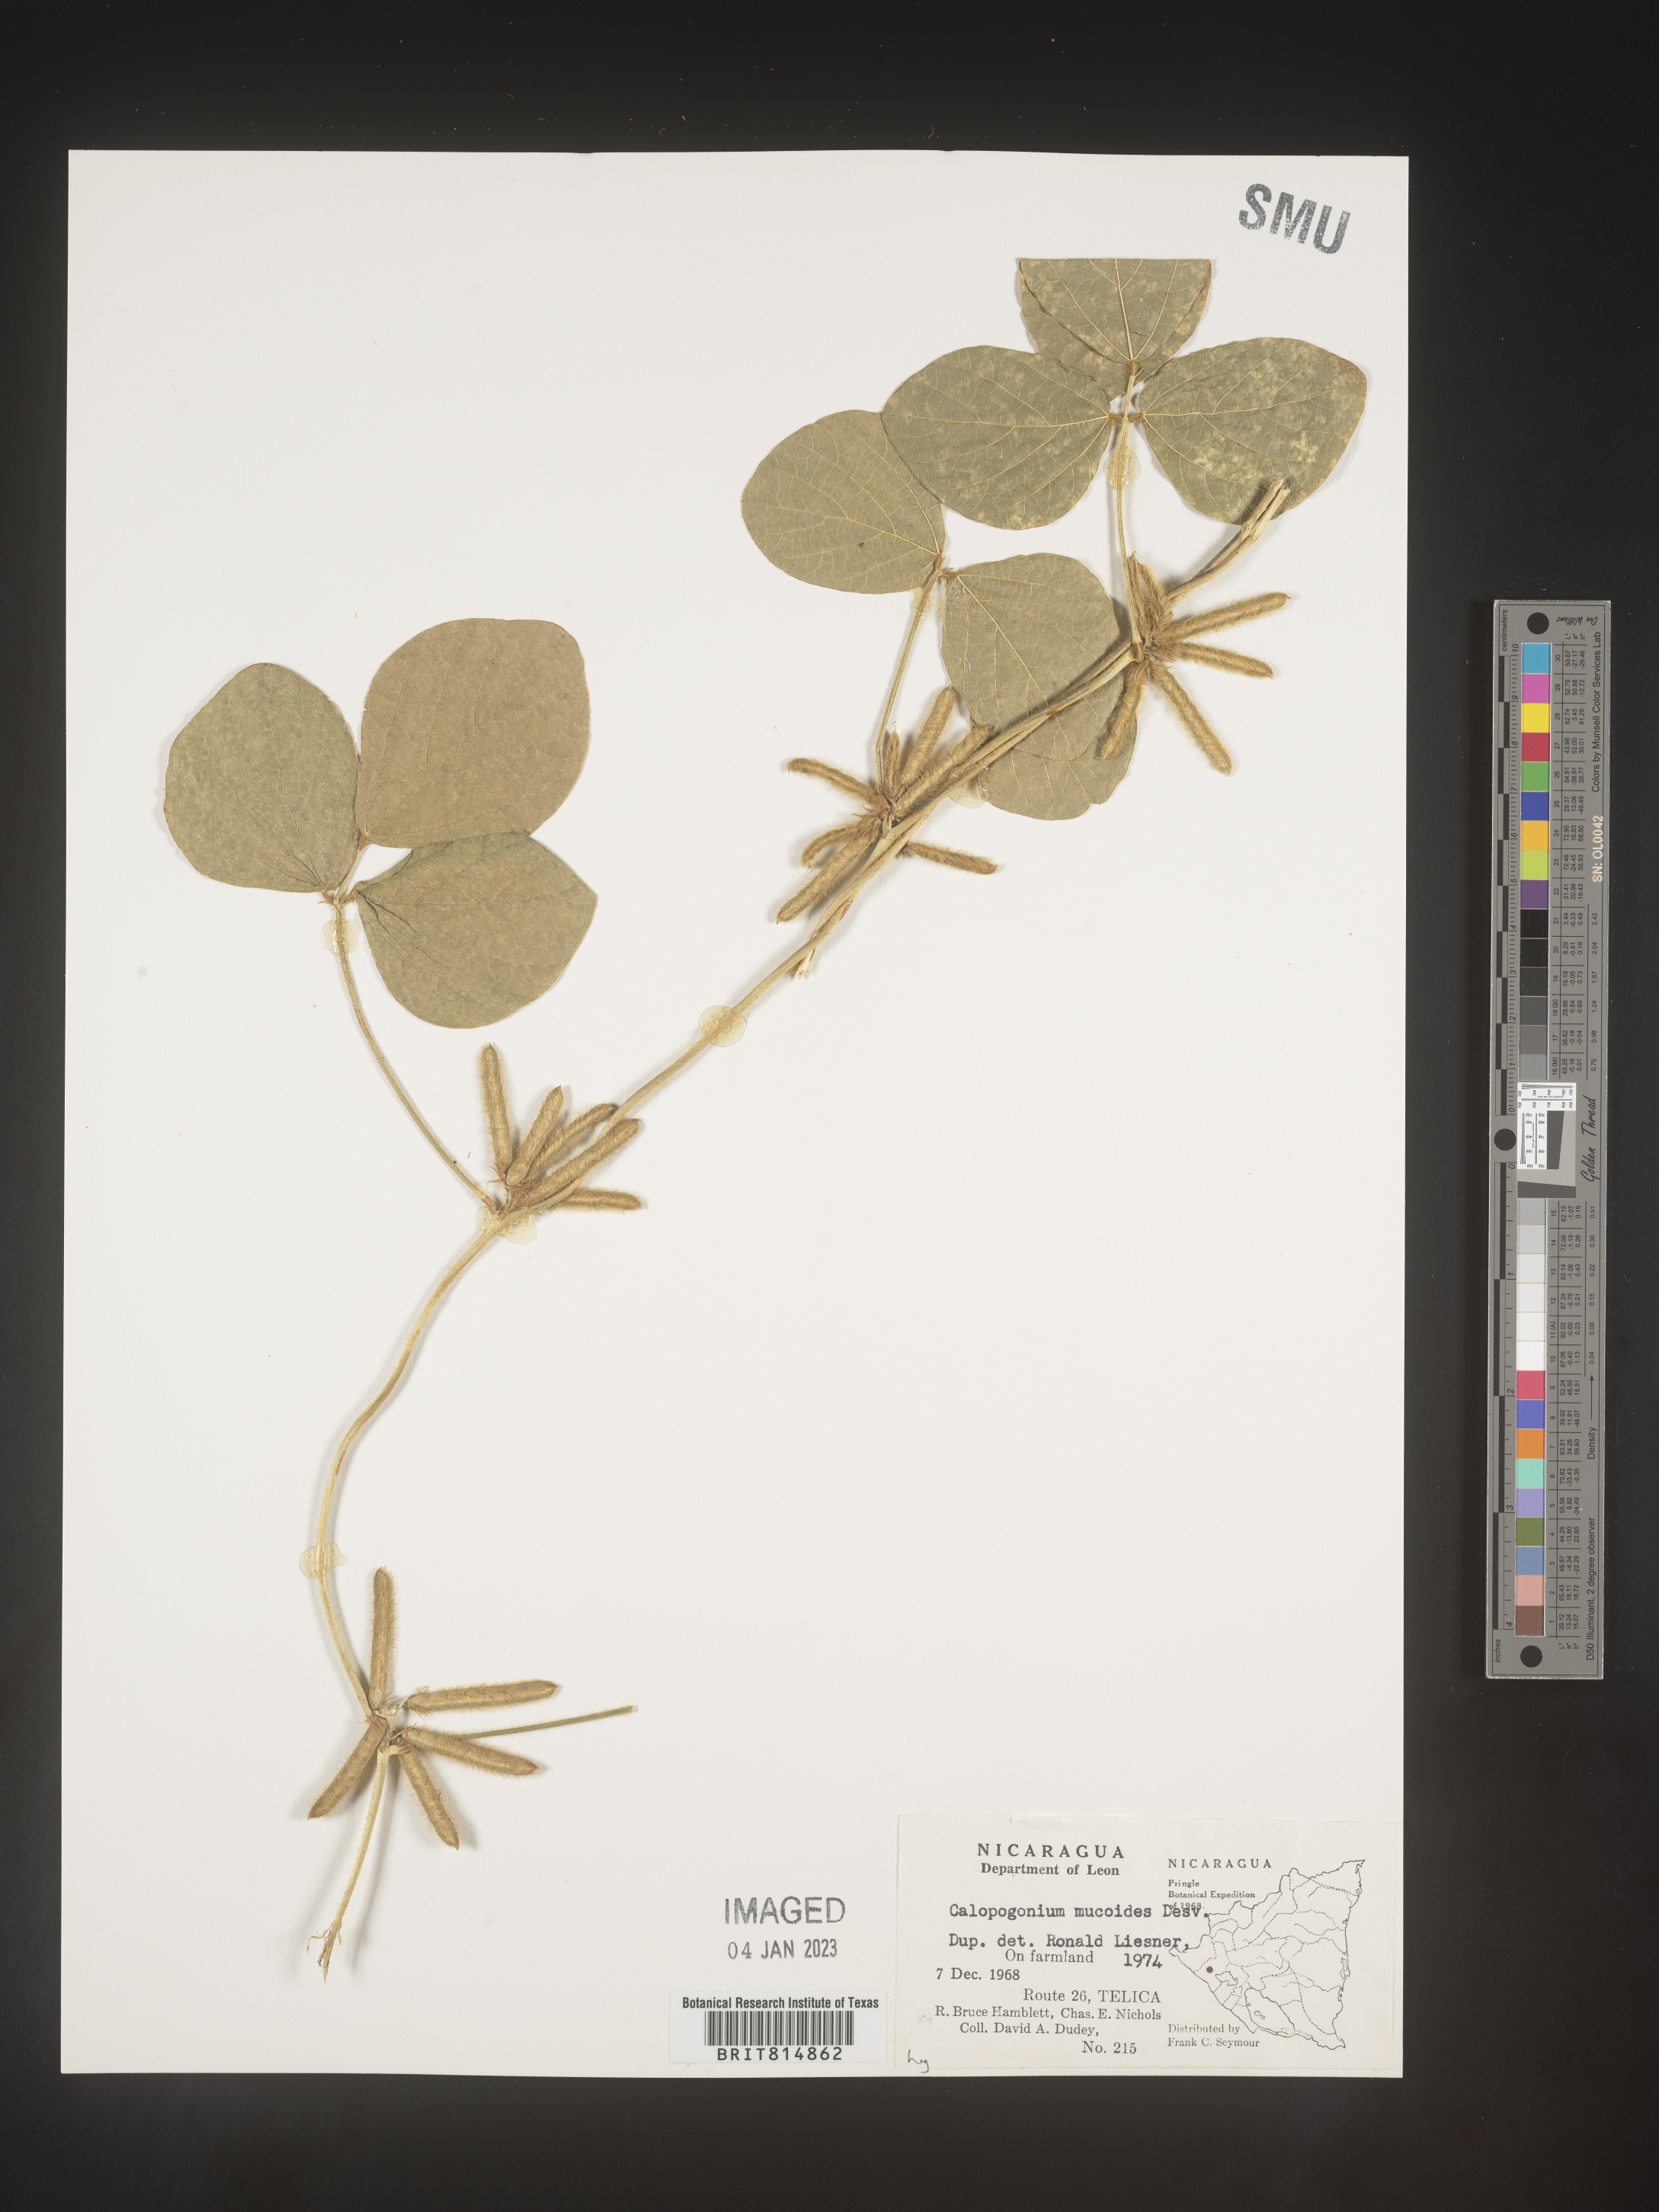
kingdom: Plantae
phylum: Tracheophyta
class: Magnoliopsida
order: Fabales
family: Fabaceae
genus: Calopogonium
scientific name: Calopogonium
